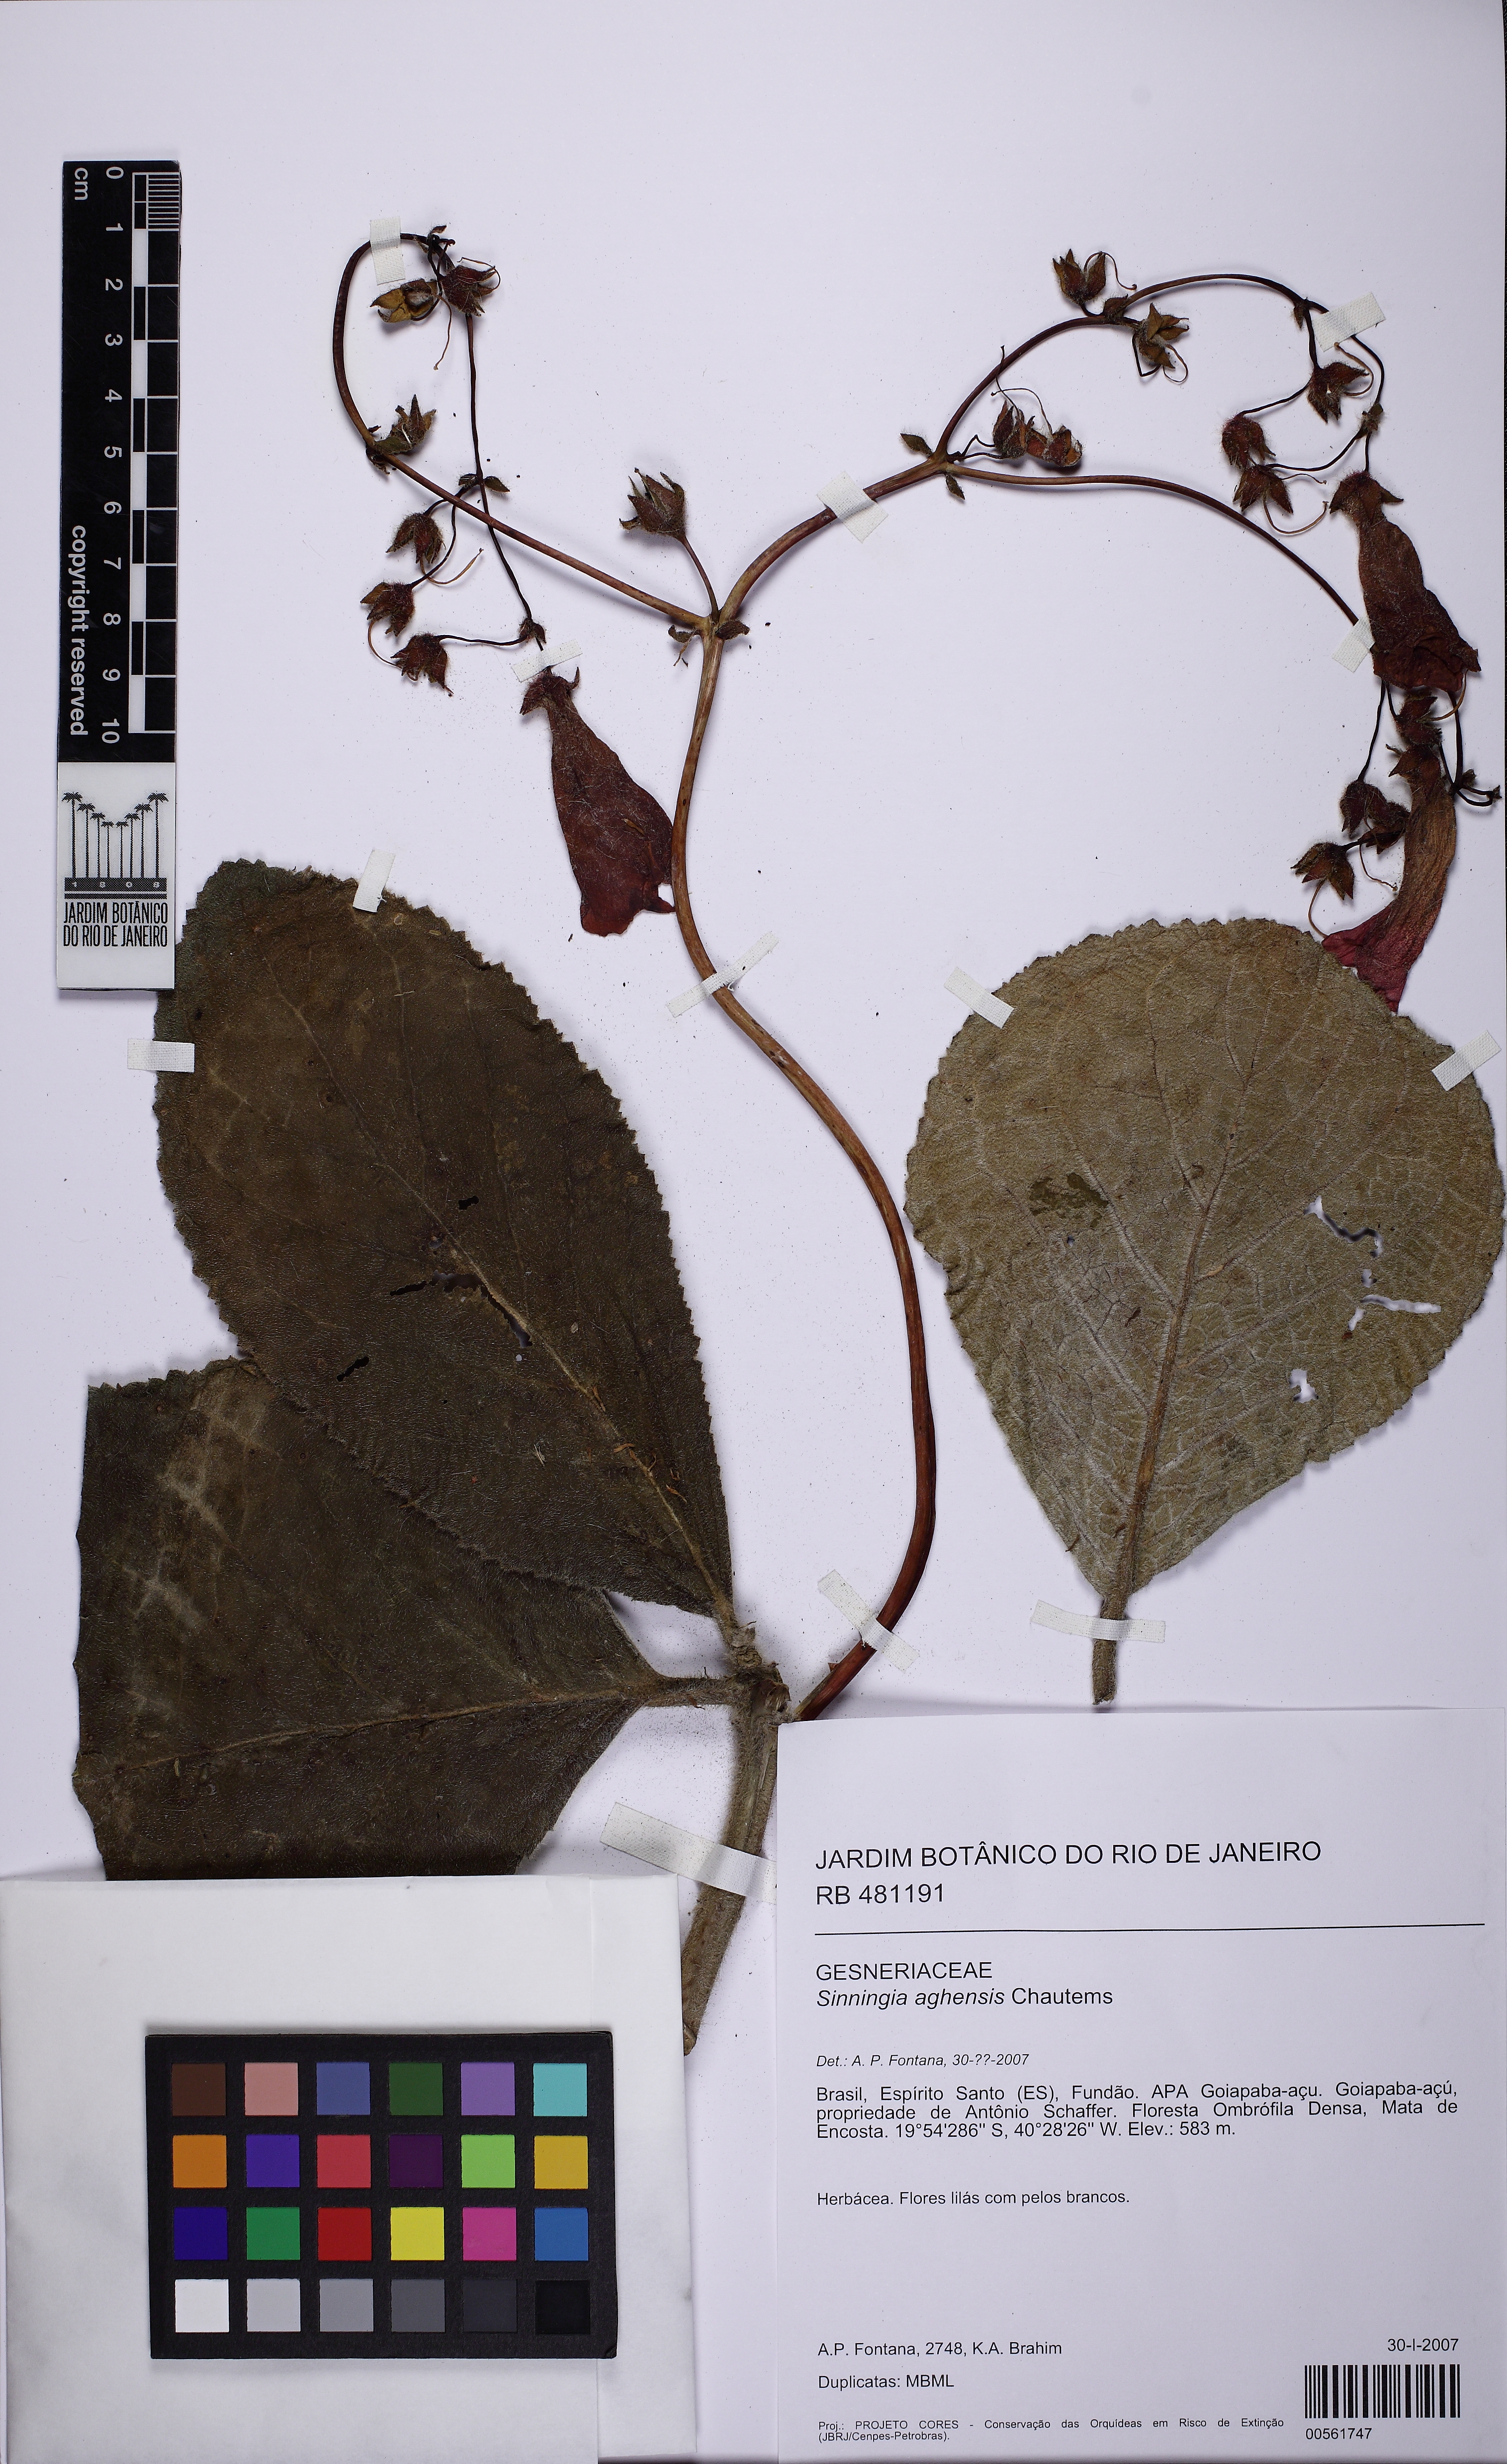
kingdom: Plantae
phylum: Tracheophyta
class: Magnoliopsida
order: Lamiales
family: Gesneriaceae
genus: Sinningia
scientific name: Sinningia aghensis
